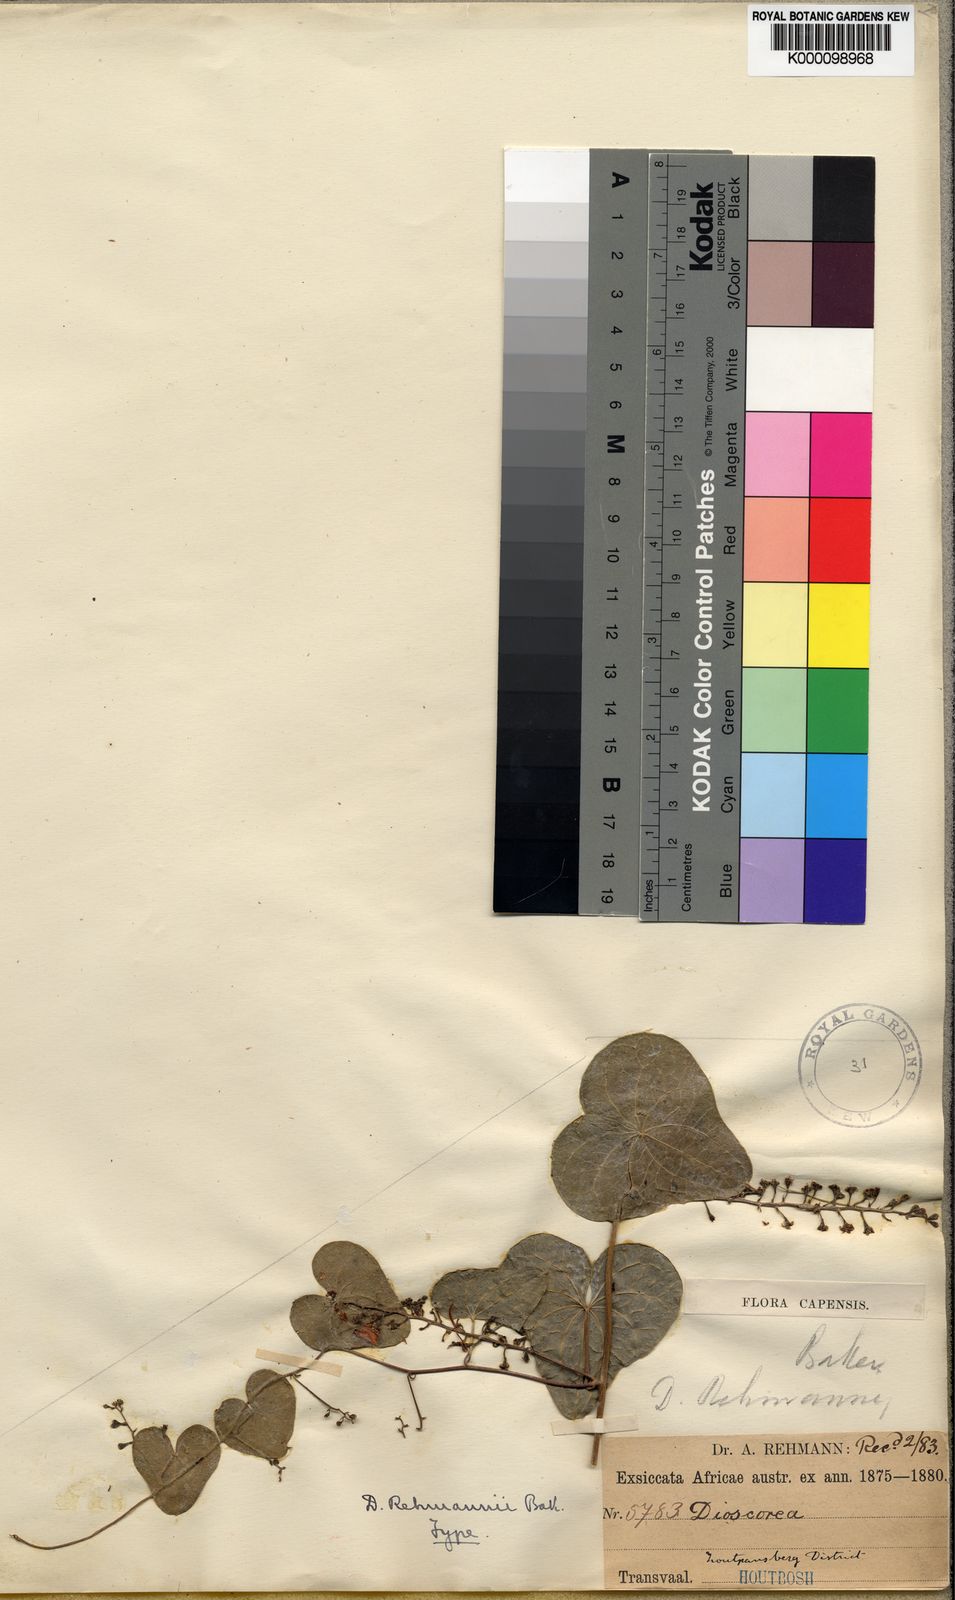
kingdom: Plantae
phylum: Tracheophyta
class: Liliopsida
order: Dioscoreales
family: Dioscoreaceae
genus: Dioscorea
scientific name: Dioscorea sylvatica
